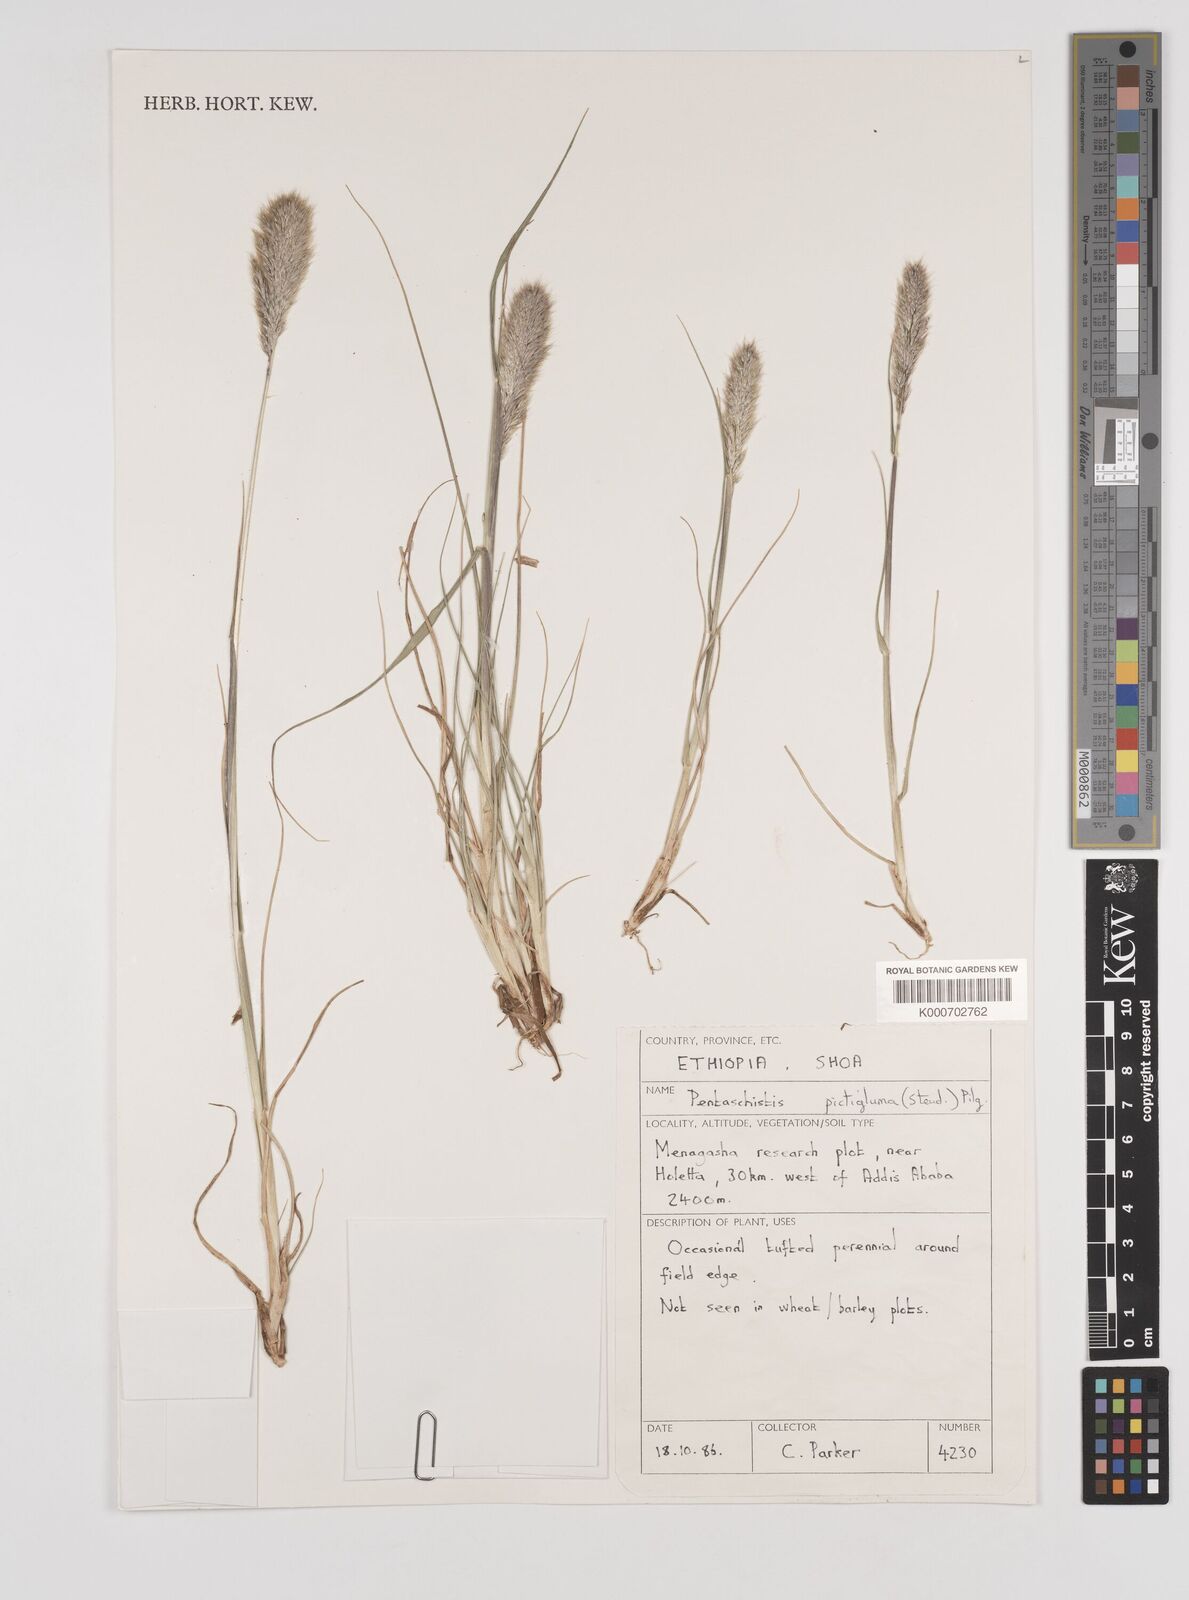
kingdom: Plantae
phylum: Tracheophyta
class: Liliopsida
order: Poales
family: Poaceae
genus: Pentameris
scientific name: Pentameris pictigluma
